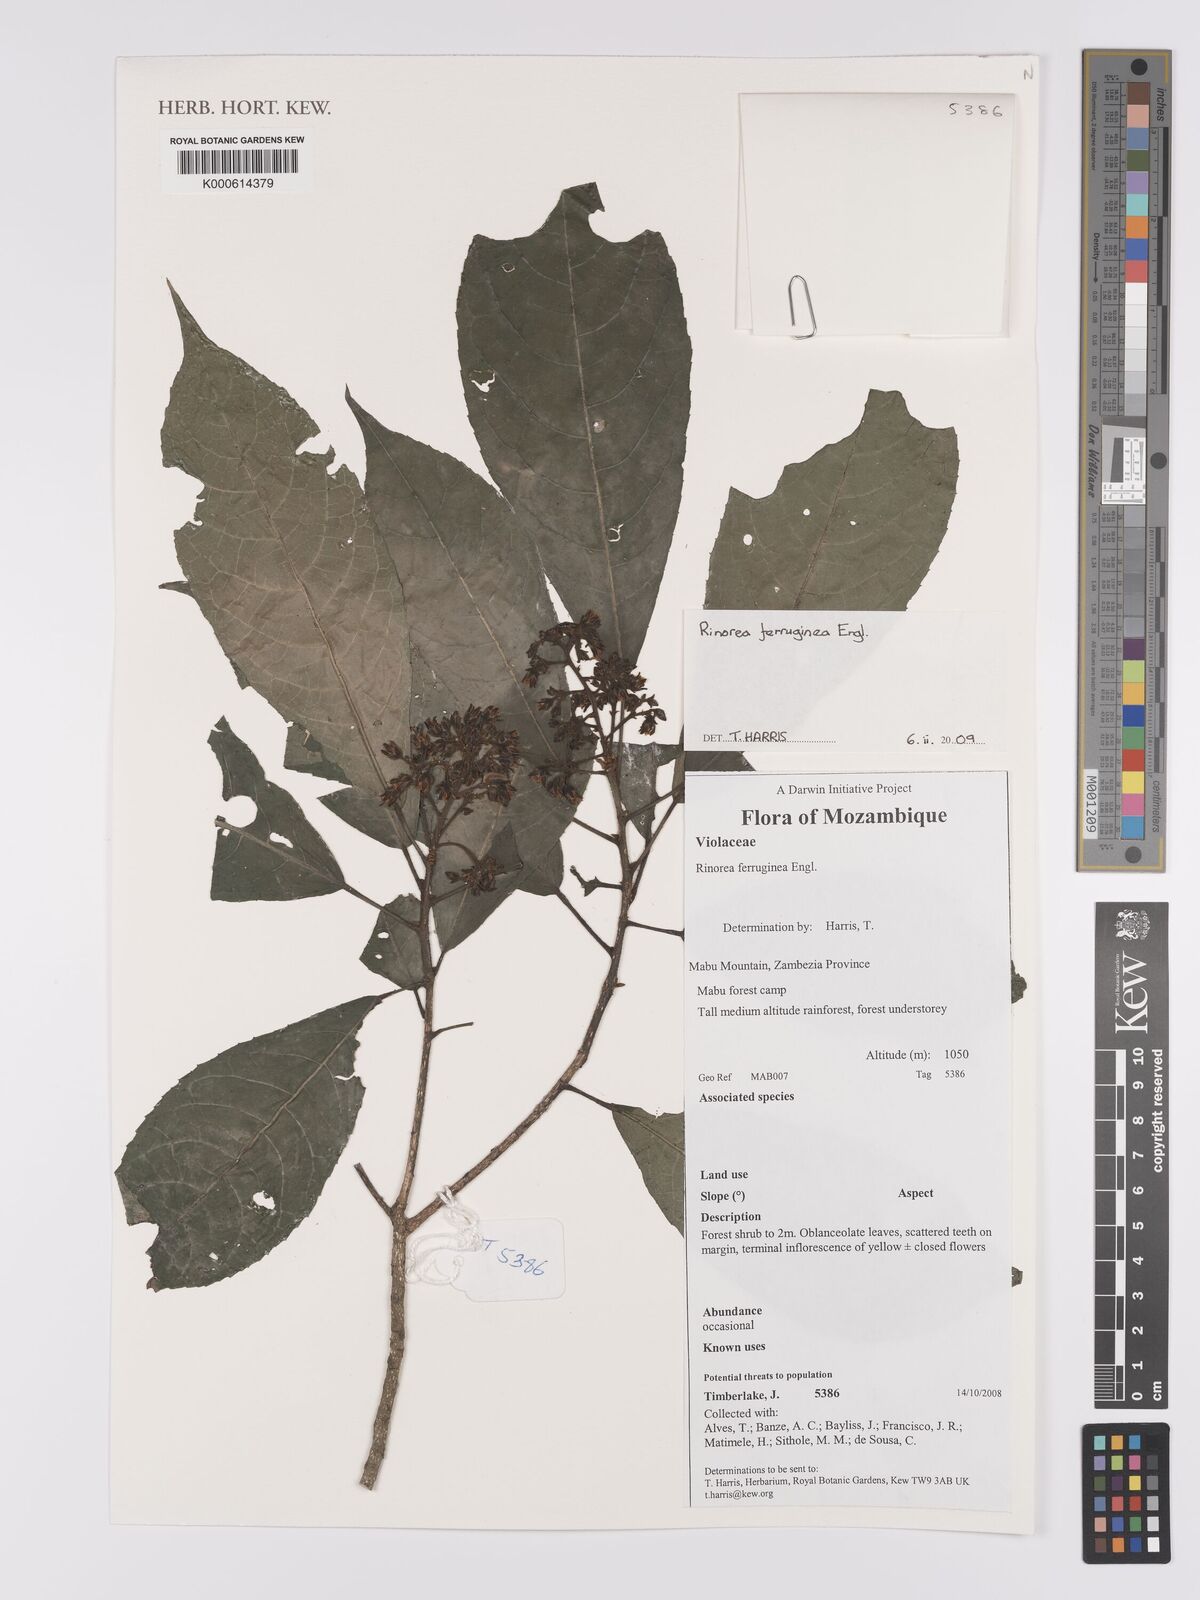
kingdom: Plantae
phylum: Tracheophyta
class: Magnoliopsida
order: Malpighiales
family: Violaceae
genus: Rinorea
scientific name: Rinorea ferruginea
